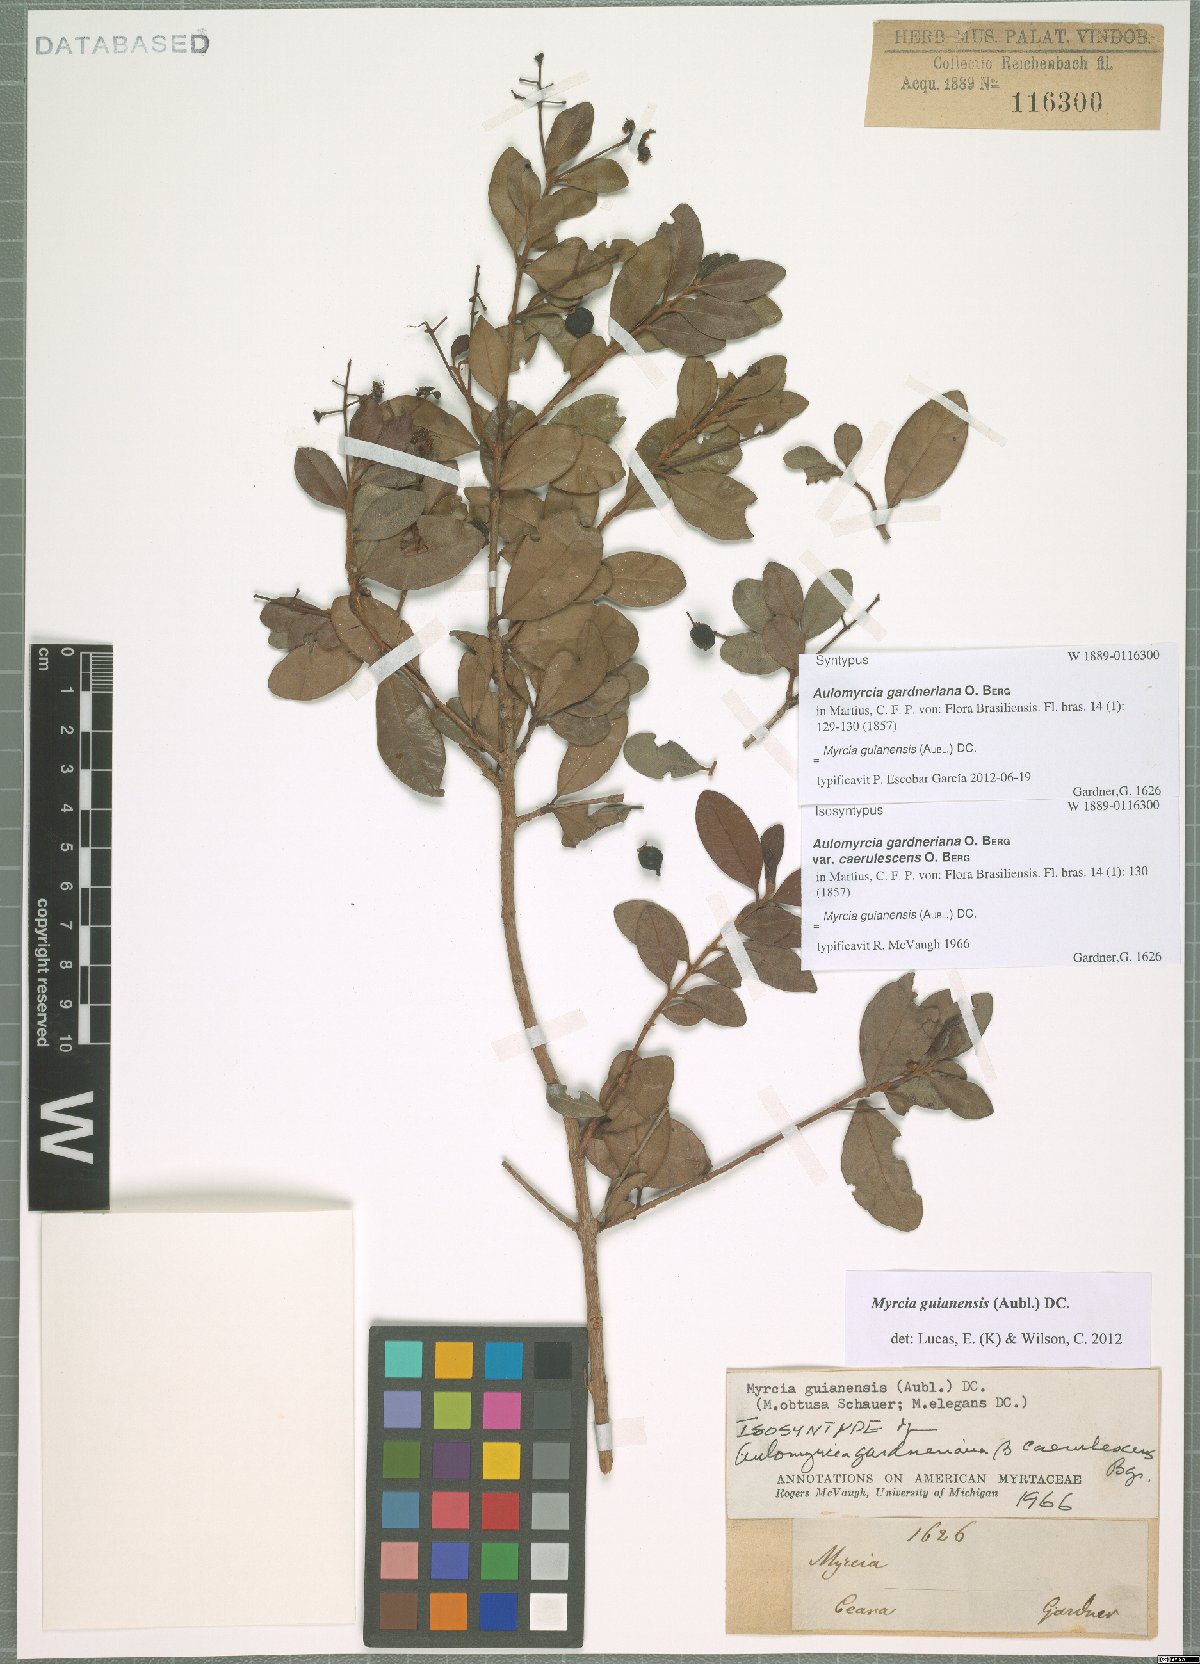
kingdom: Plantae
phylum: Tracheophyta
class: Magnoliopsida
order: Myrtales
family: Myrtaceae
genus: Myrcia
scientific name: Myrcia guianensis
